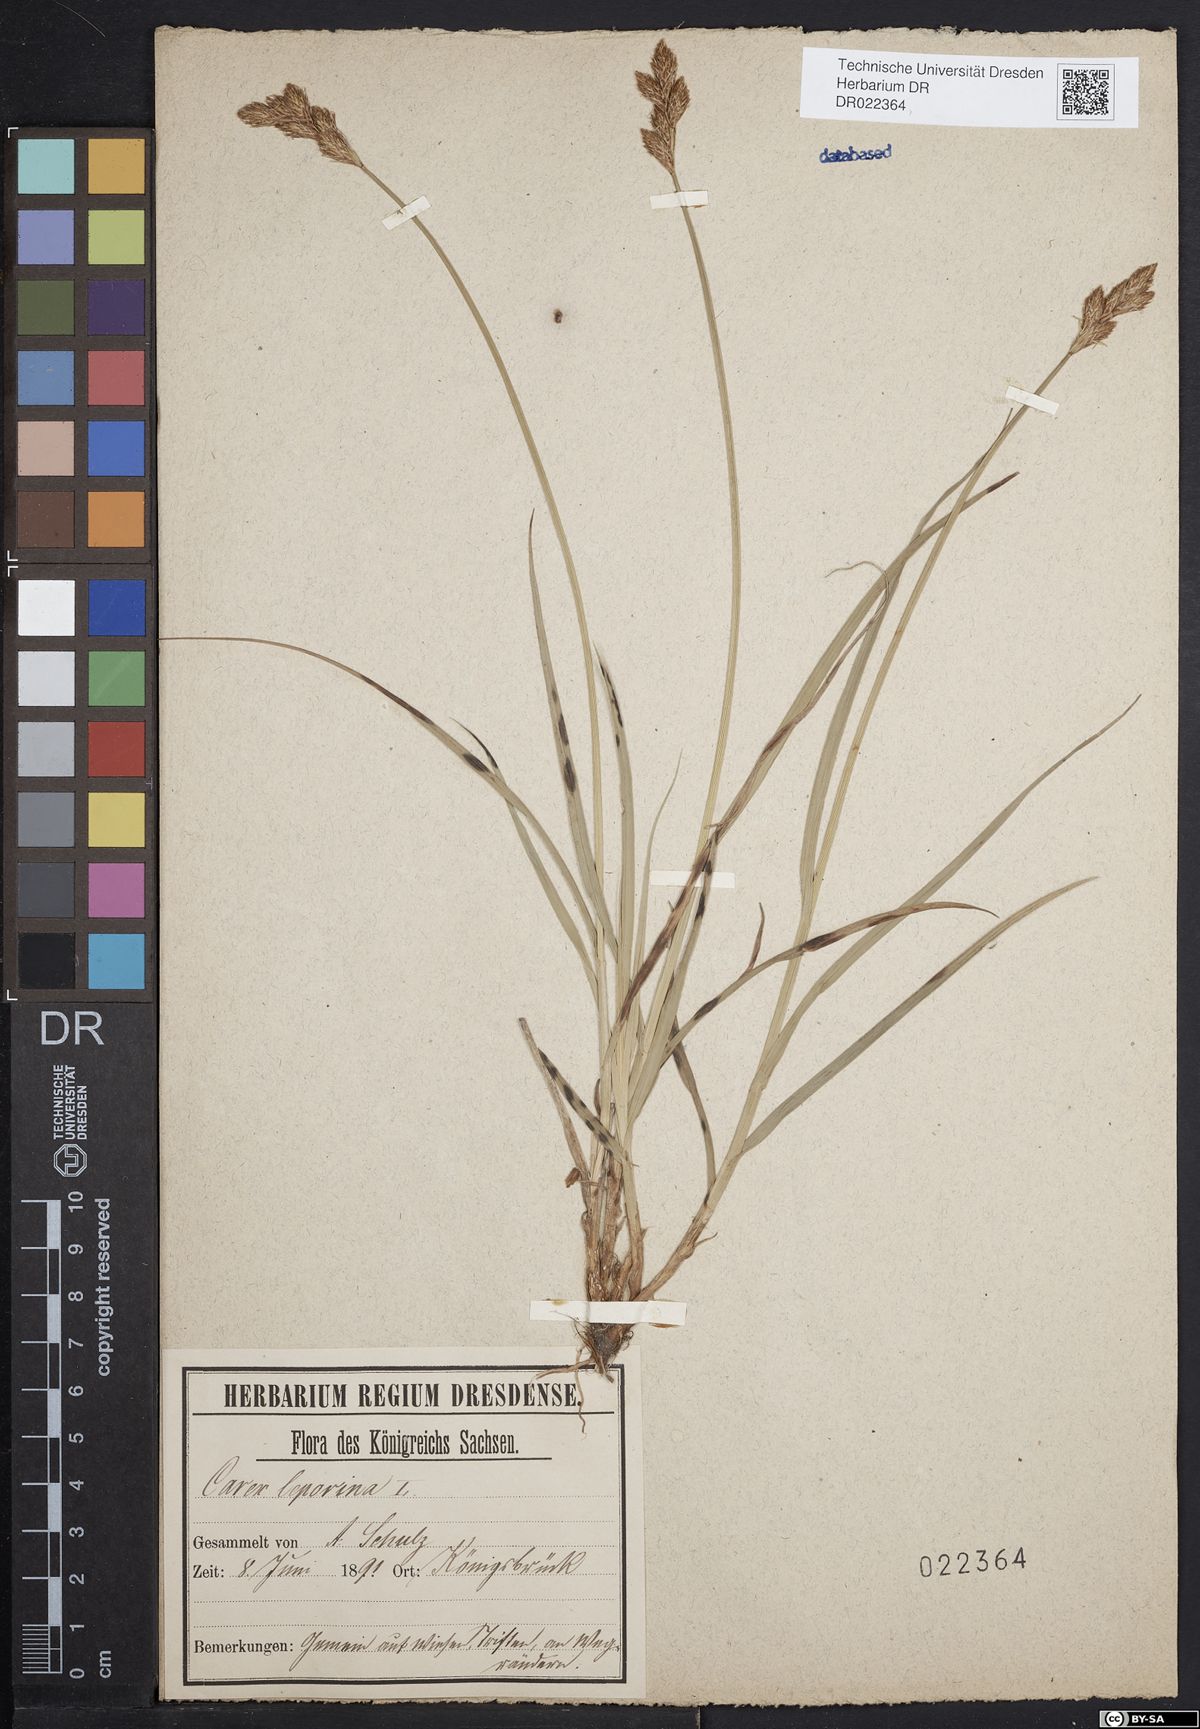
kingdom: Plantae
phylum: Tracheophyta
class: Liliopsida
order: Poales
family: Cyperaceae
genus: Carex
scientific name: Carex leporina
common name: Oval sedge
